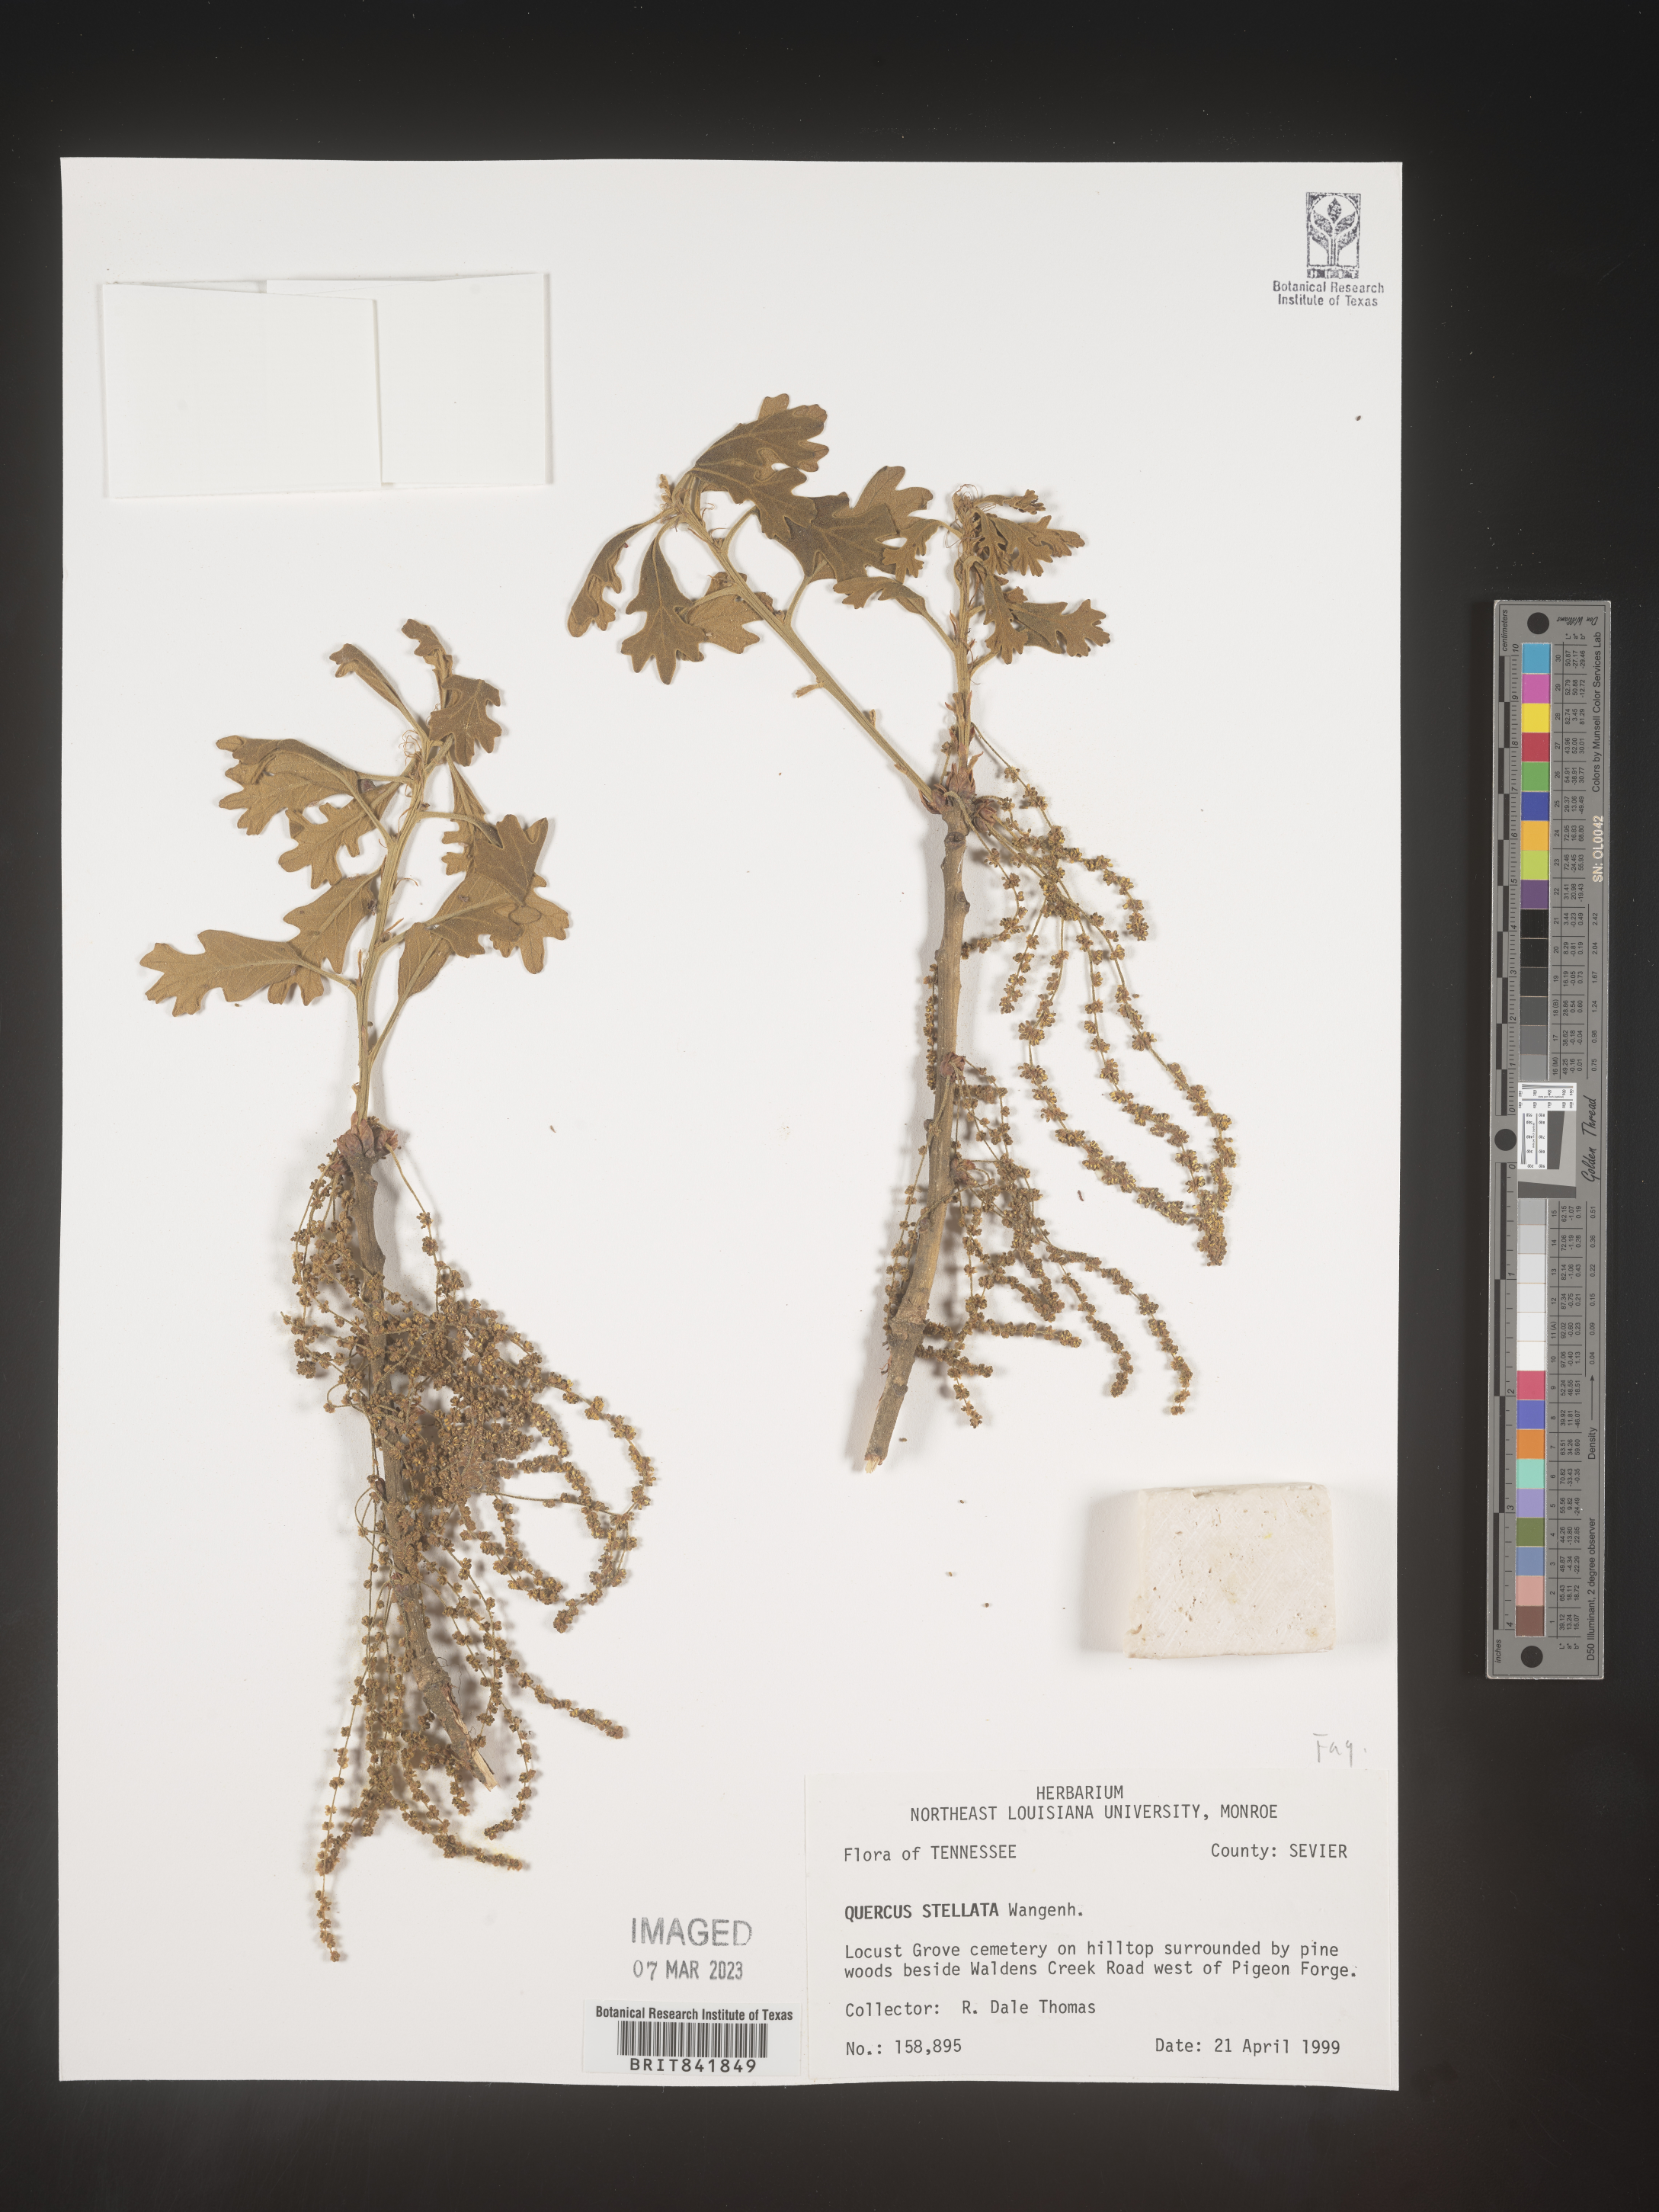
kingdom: Plantae
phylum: Tracheophyta
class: Magnoliopsida
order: Fagales
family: Fagaceae
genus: Quercus
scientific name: Quercus stellata
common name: Post oak
